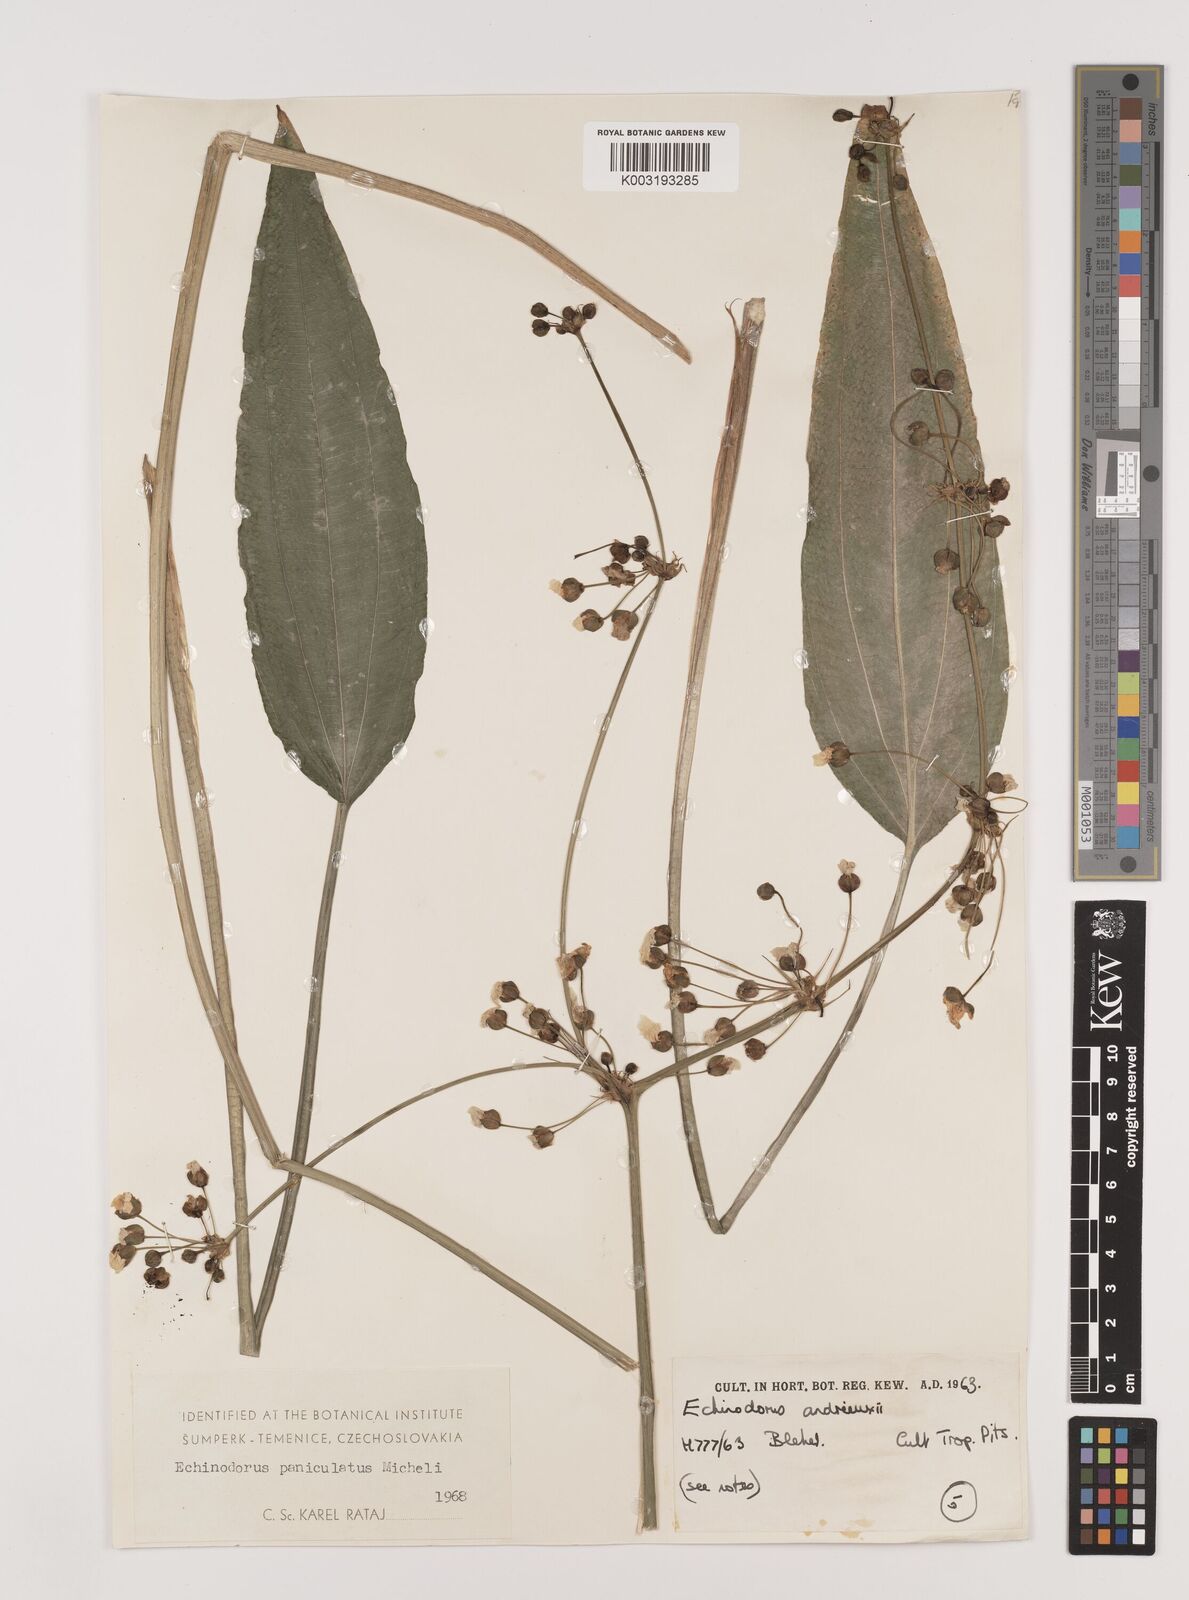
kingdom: Plantae
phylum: Tracheophyta
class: Liliopsida
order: Alismatales
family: Alismataceae
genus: Aquarius
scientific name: Aquarius paniculatus
